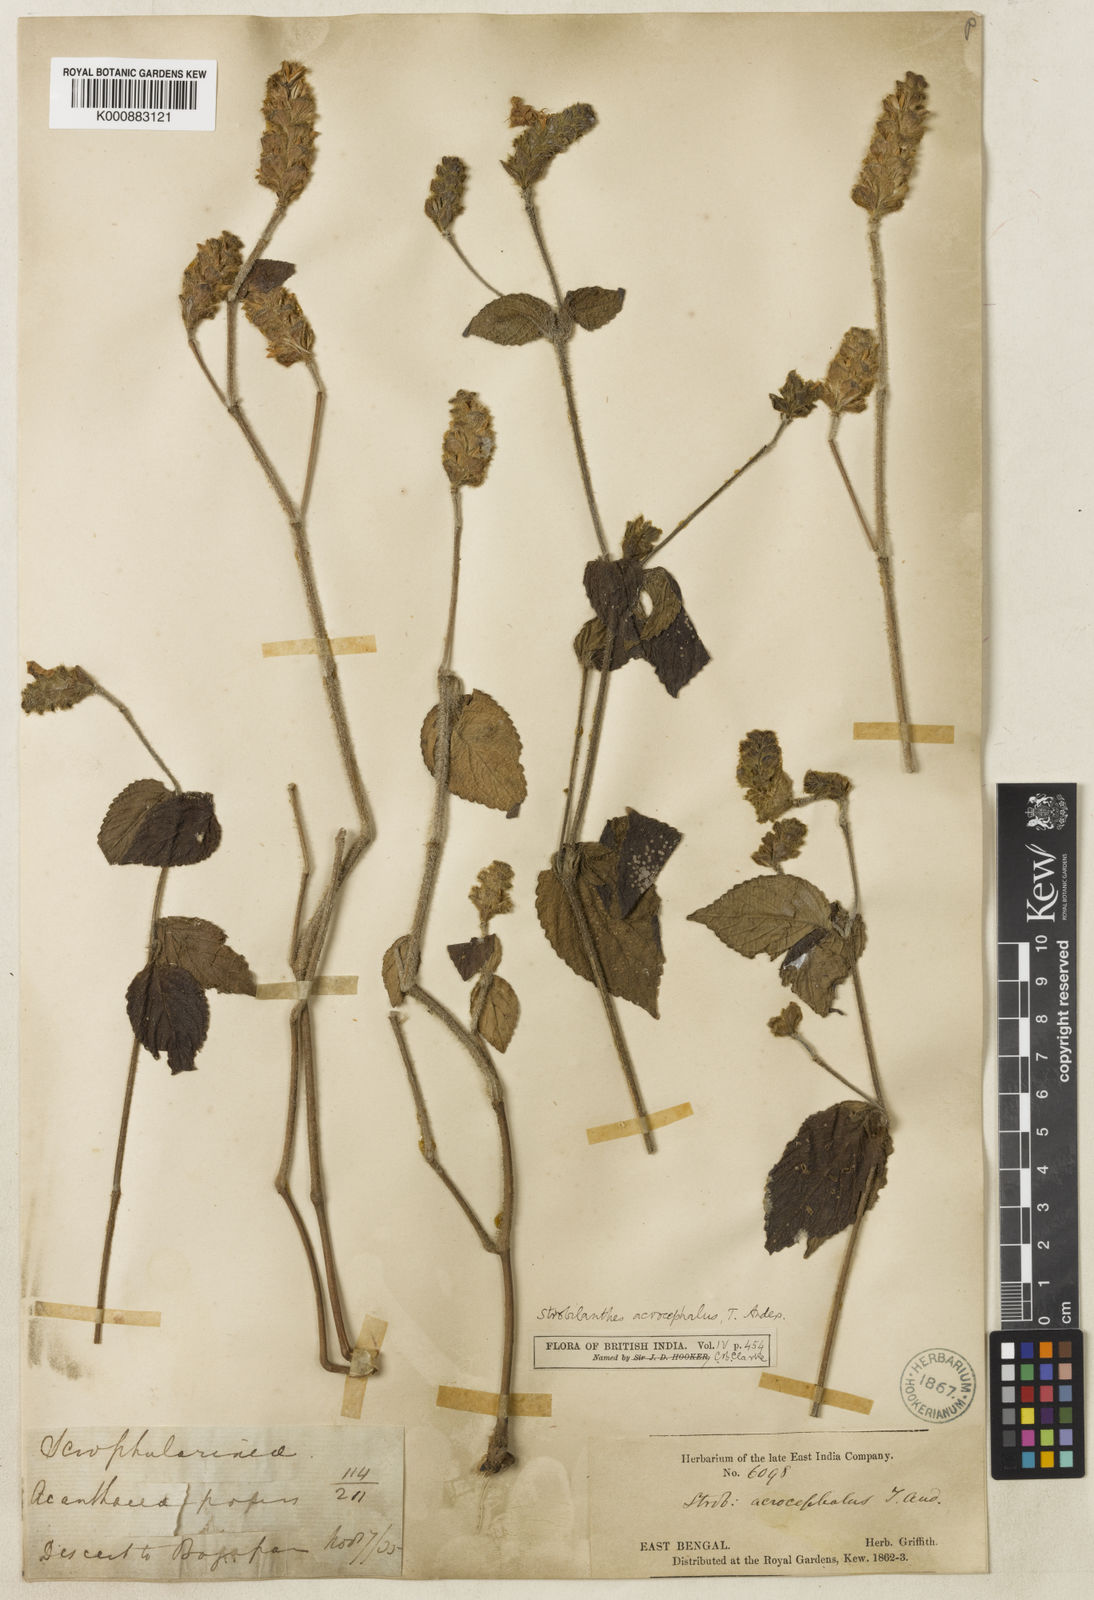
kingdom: Plantae
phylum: Tracheophyta
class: Magnoliopsida
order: Lamiales
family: Acanthaceae
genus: Strobilanthes
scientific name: Strobilanthes
